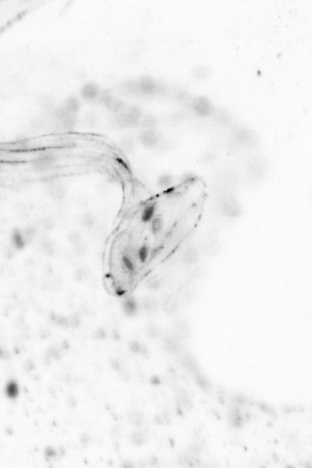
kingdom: Animalia
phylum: Chordata
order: Copelata
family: Fritillariidae
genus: Appendicularia
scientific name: Appendicularia
